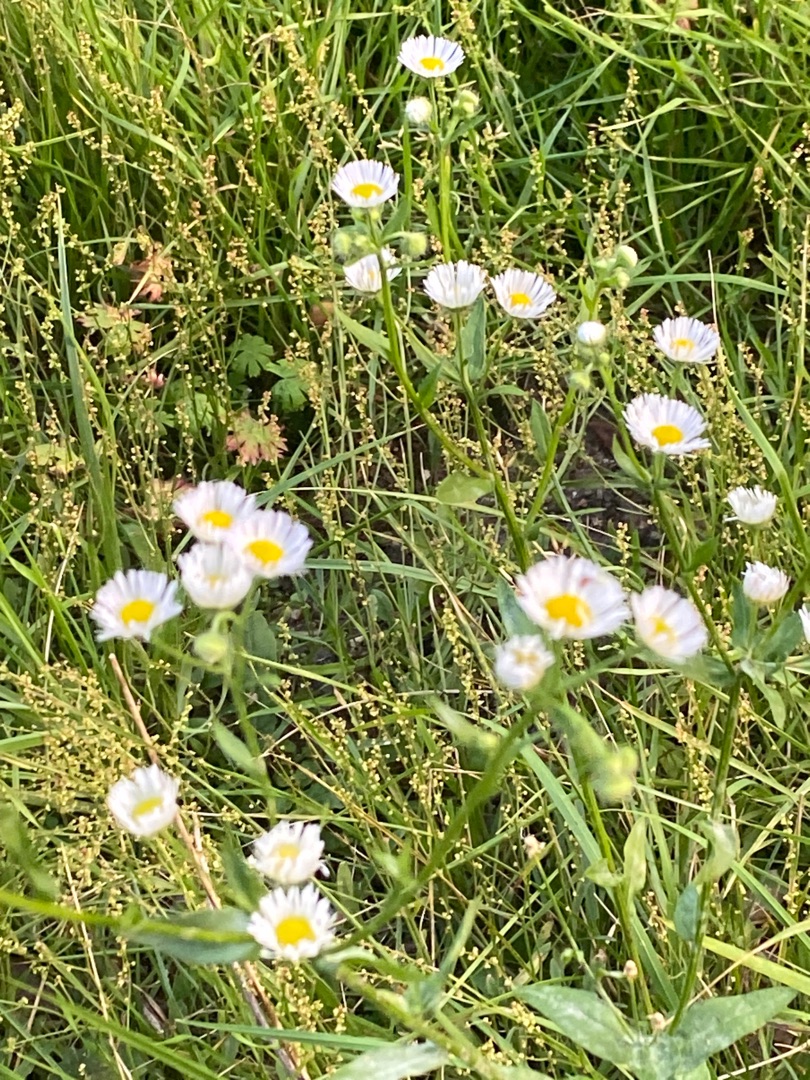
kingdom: Plantae
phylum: Tracheophyta
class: Magnoliopsida
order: Asterales
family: Asteraceae
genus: Erigeron
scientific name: Erigeron annuus
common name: Smalstråle
